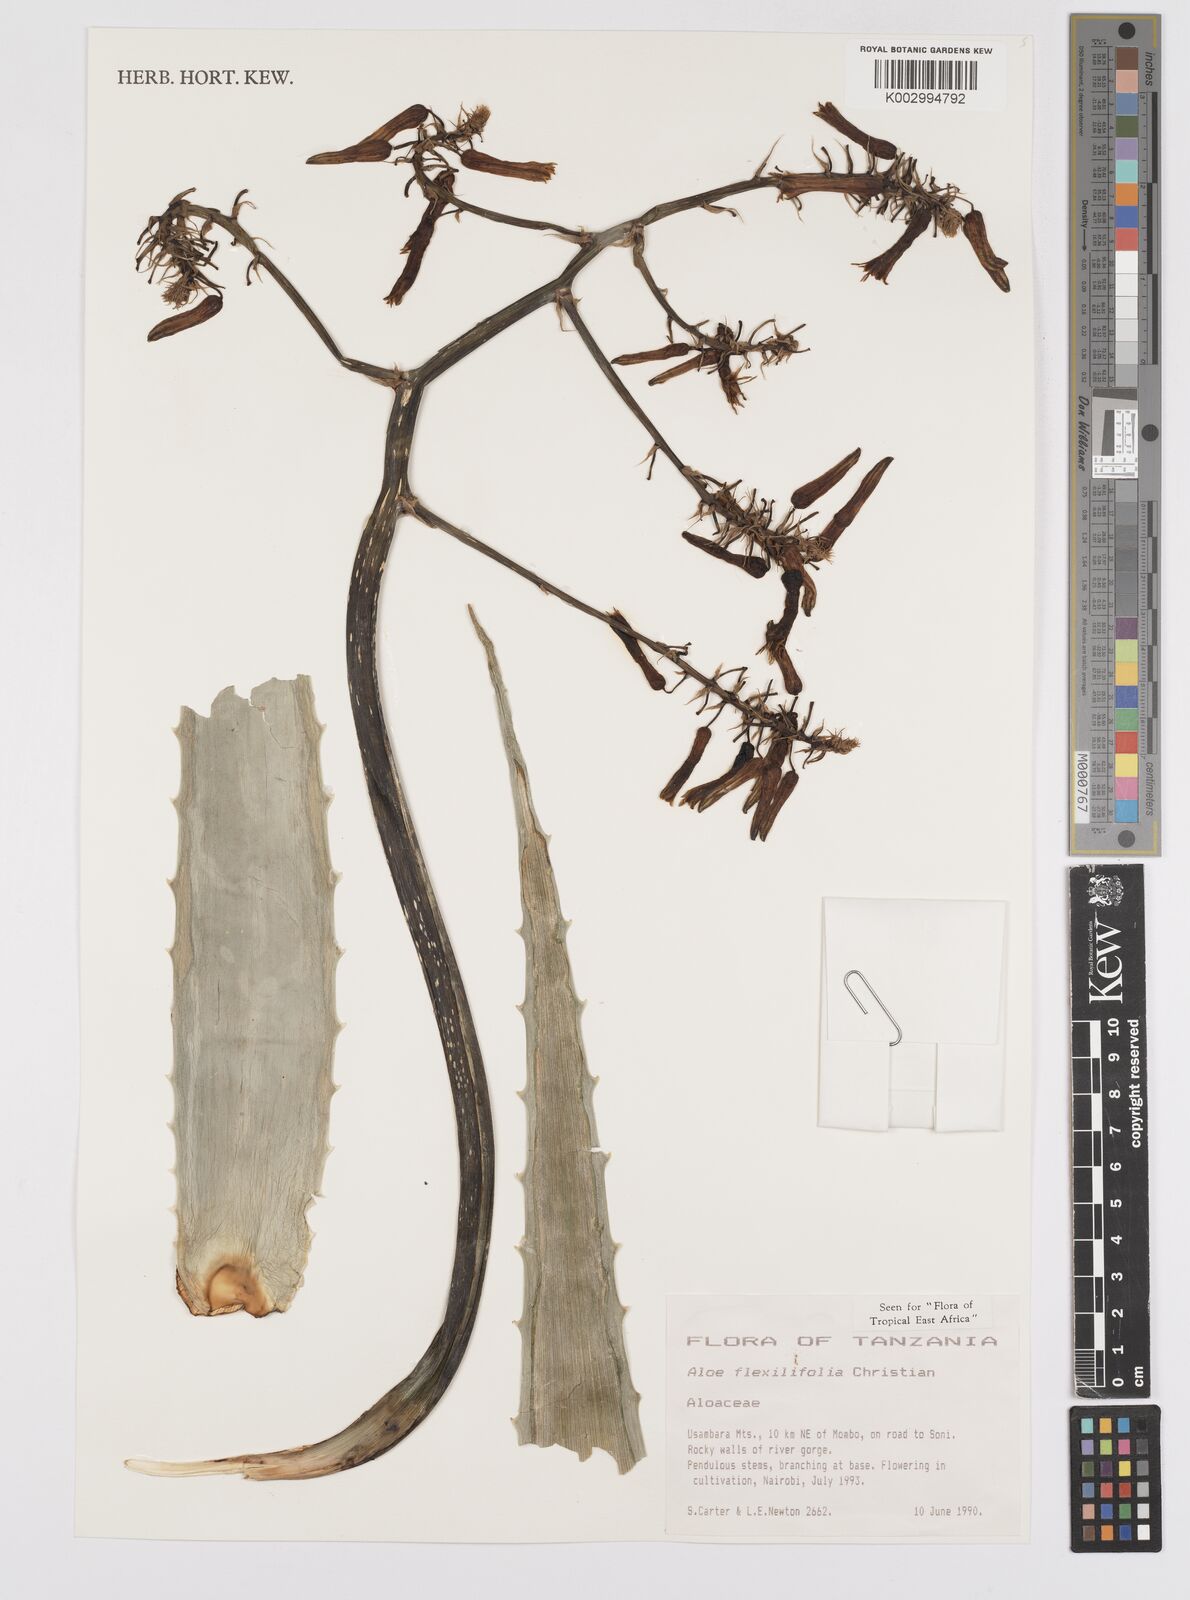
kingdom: Plantae
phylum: Tracheophyta
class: Liliopsida
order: Asparagales
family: Asphodelaceae
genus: Aloe
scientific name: Aloe flexilifolia
